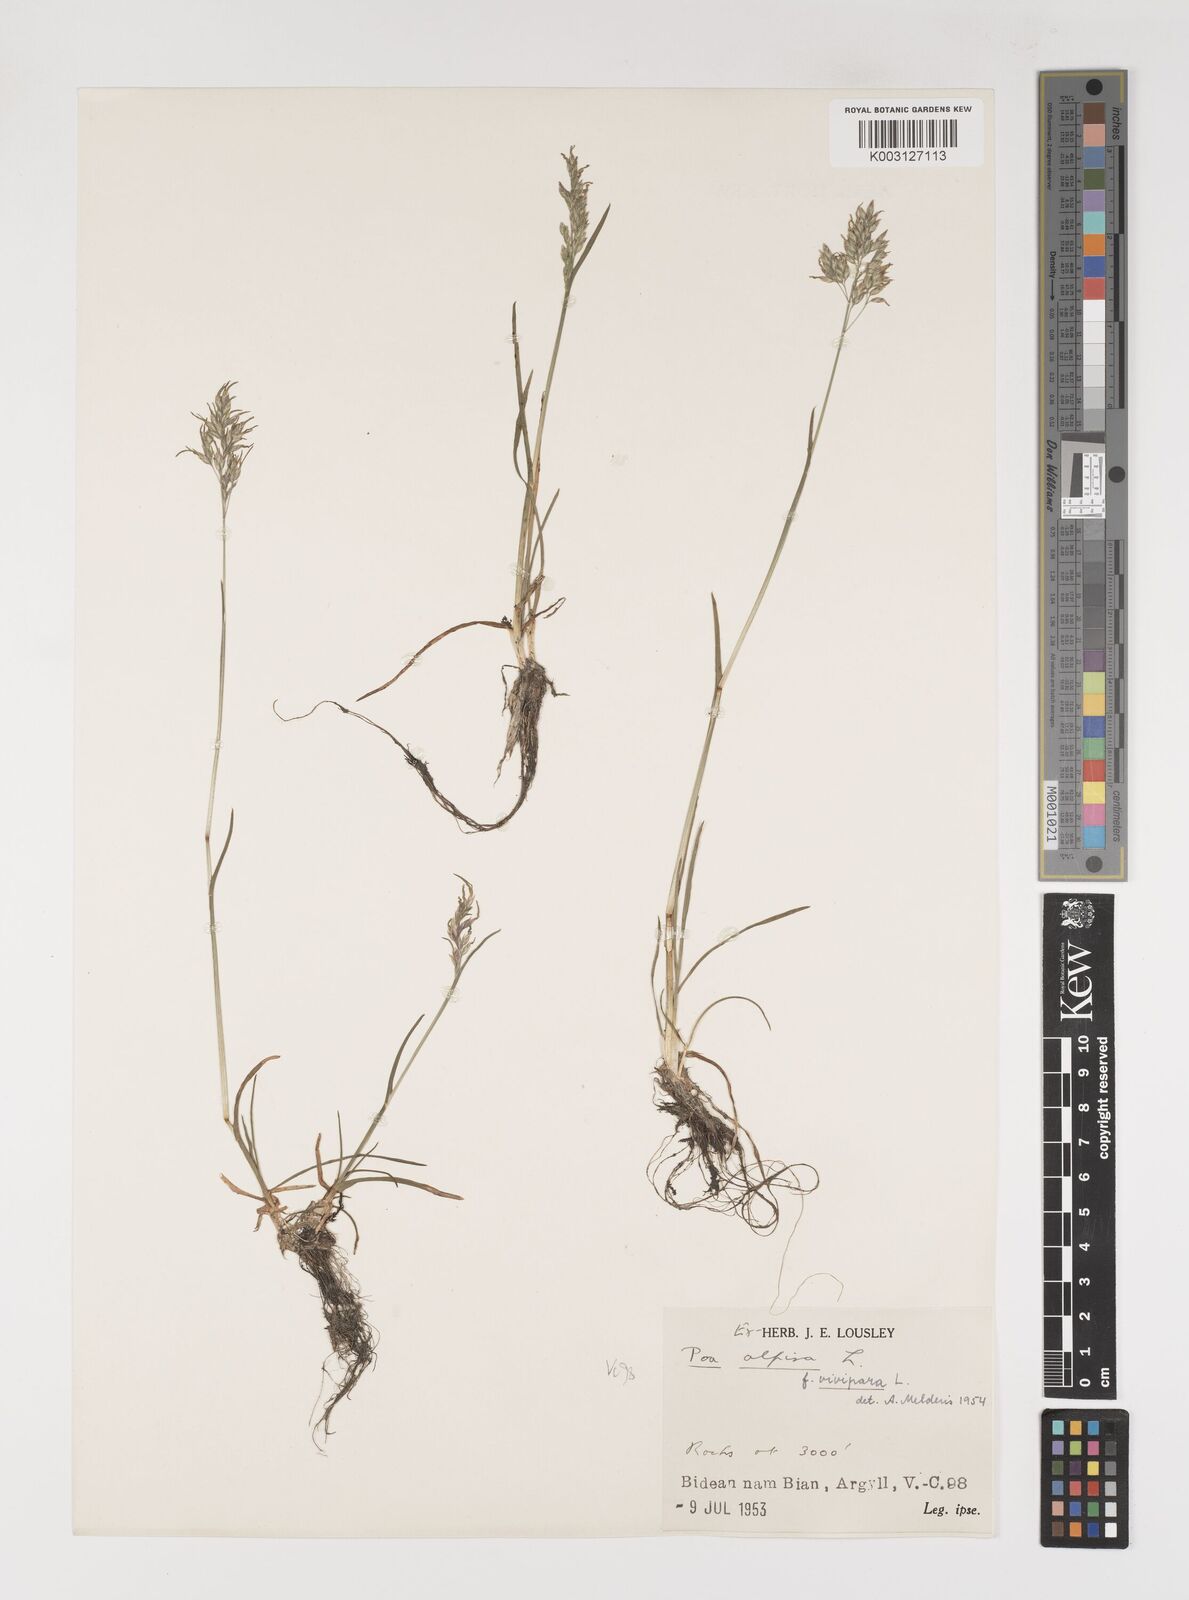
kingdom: Plantae
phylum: Tracheophyta
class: Liliopsida
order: Poales
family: Poaceae
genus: Poa
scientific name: Poa alpina
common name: Alpine bluegrass
